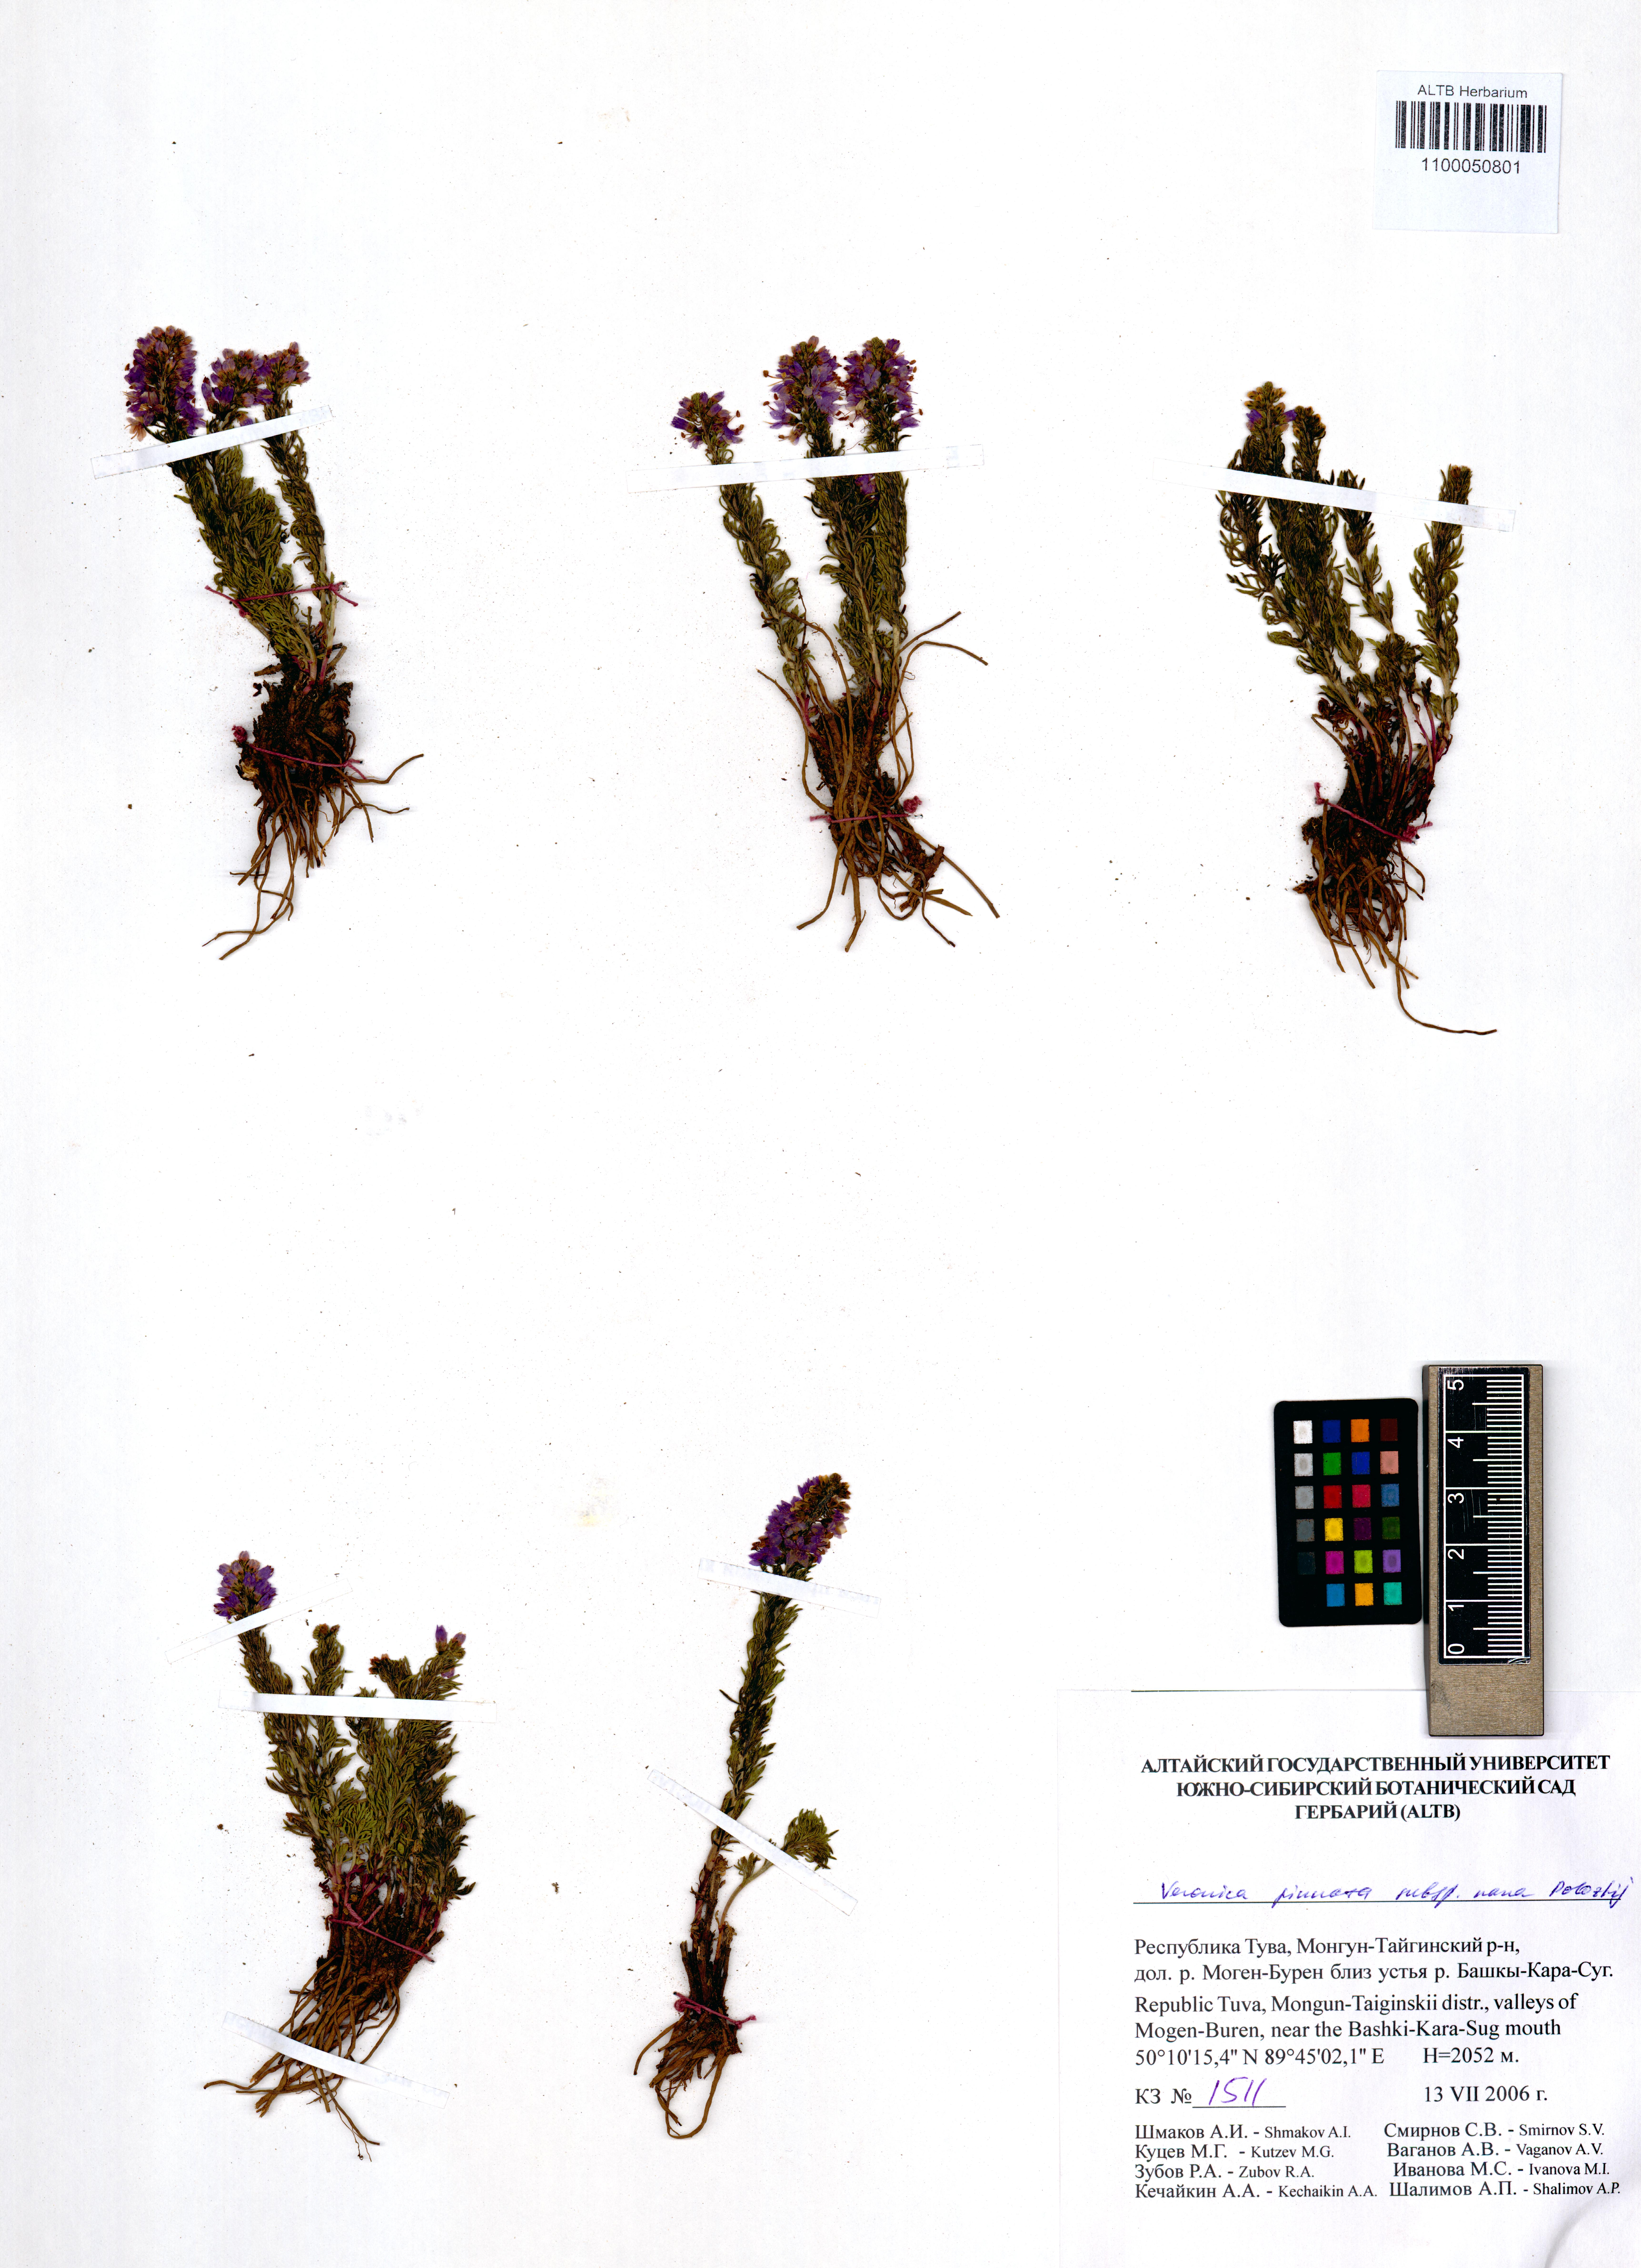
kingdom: Plantae
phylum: Tracheophyta
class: Magnoliopsida
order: Lamiales
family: Plantaginaceae
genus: Veronica
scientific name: Veronica pinnata
